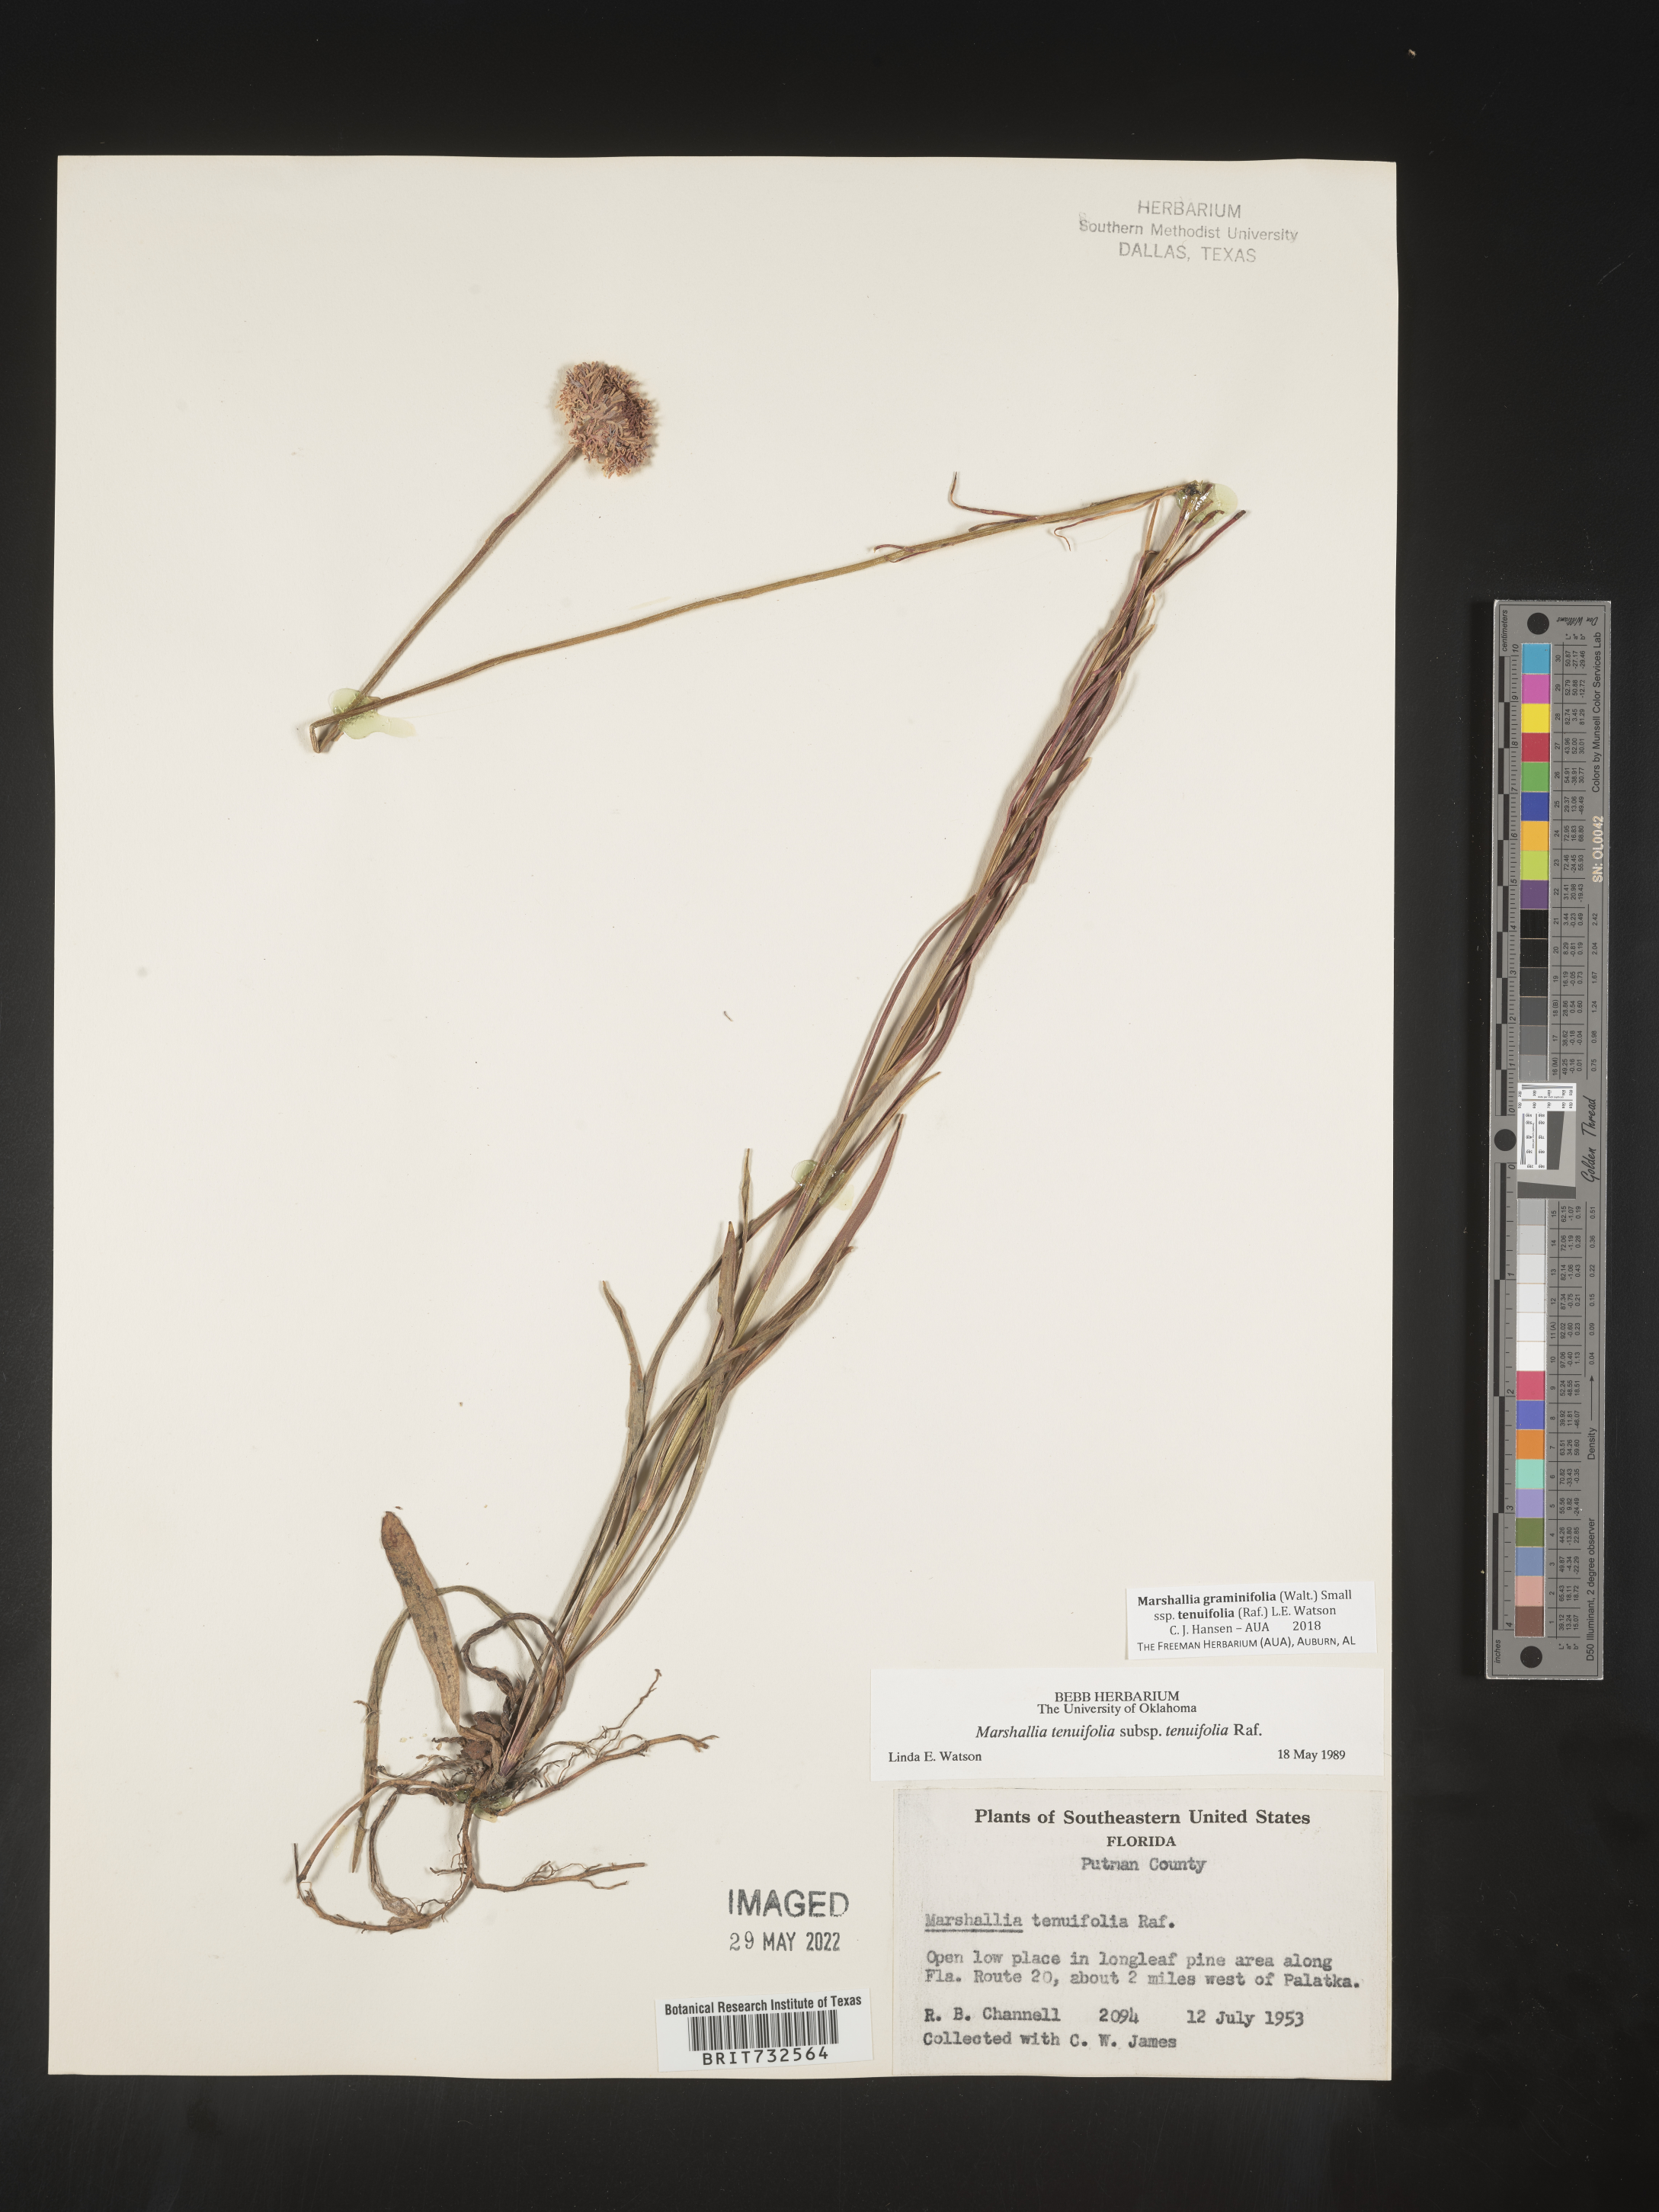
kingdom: Plantae
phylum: Tracheophyta
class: Magnoliopsida
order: Asterales
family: Asteraceae
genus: Marshallia
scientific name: Marshallia graminifolia
